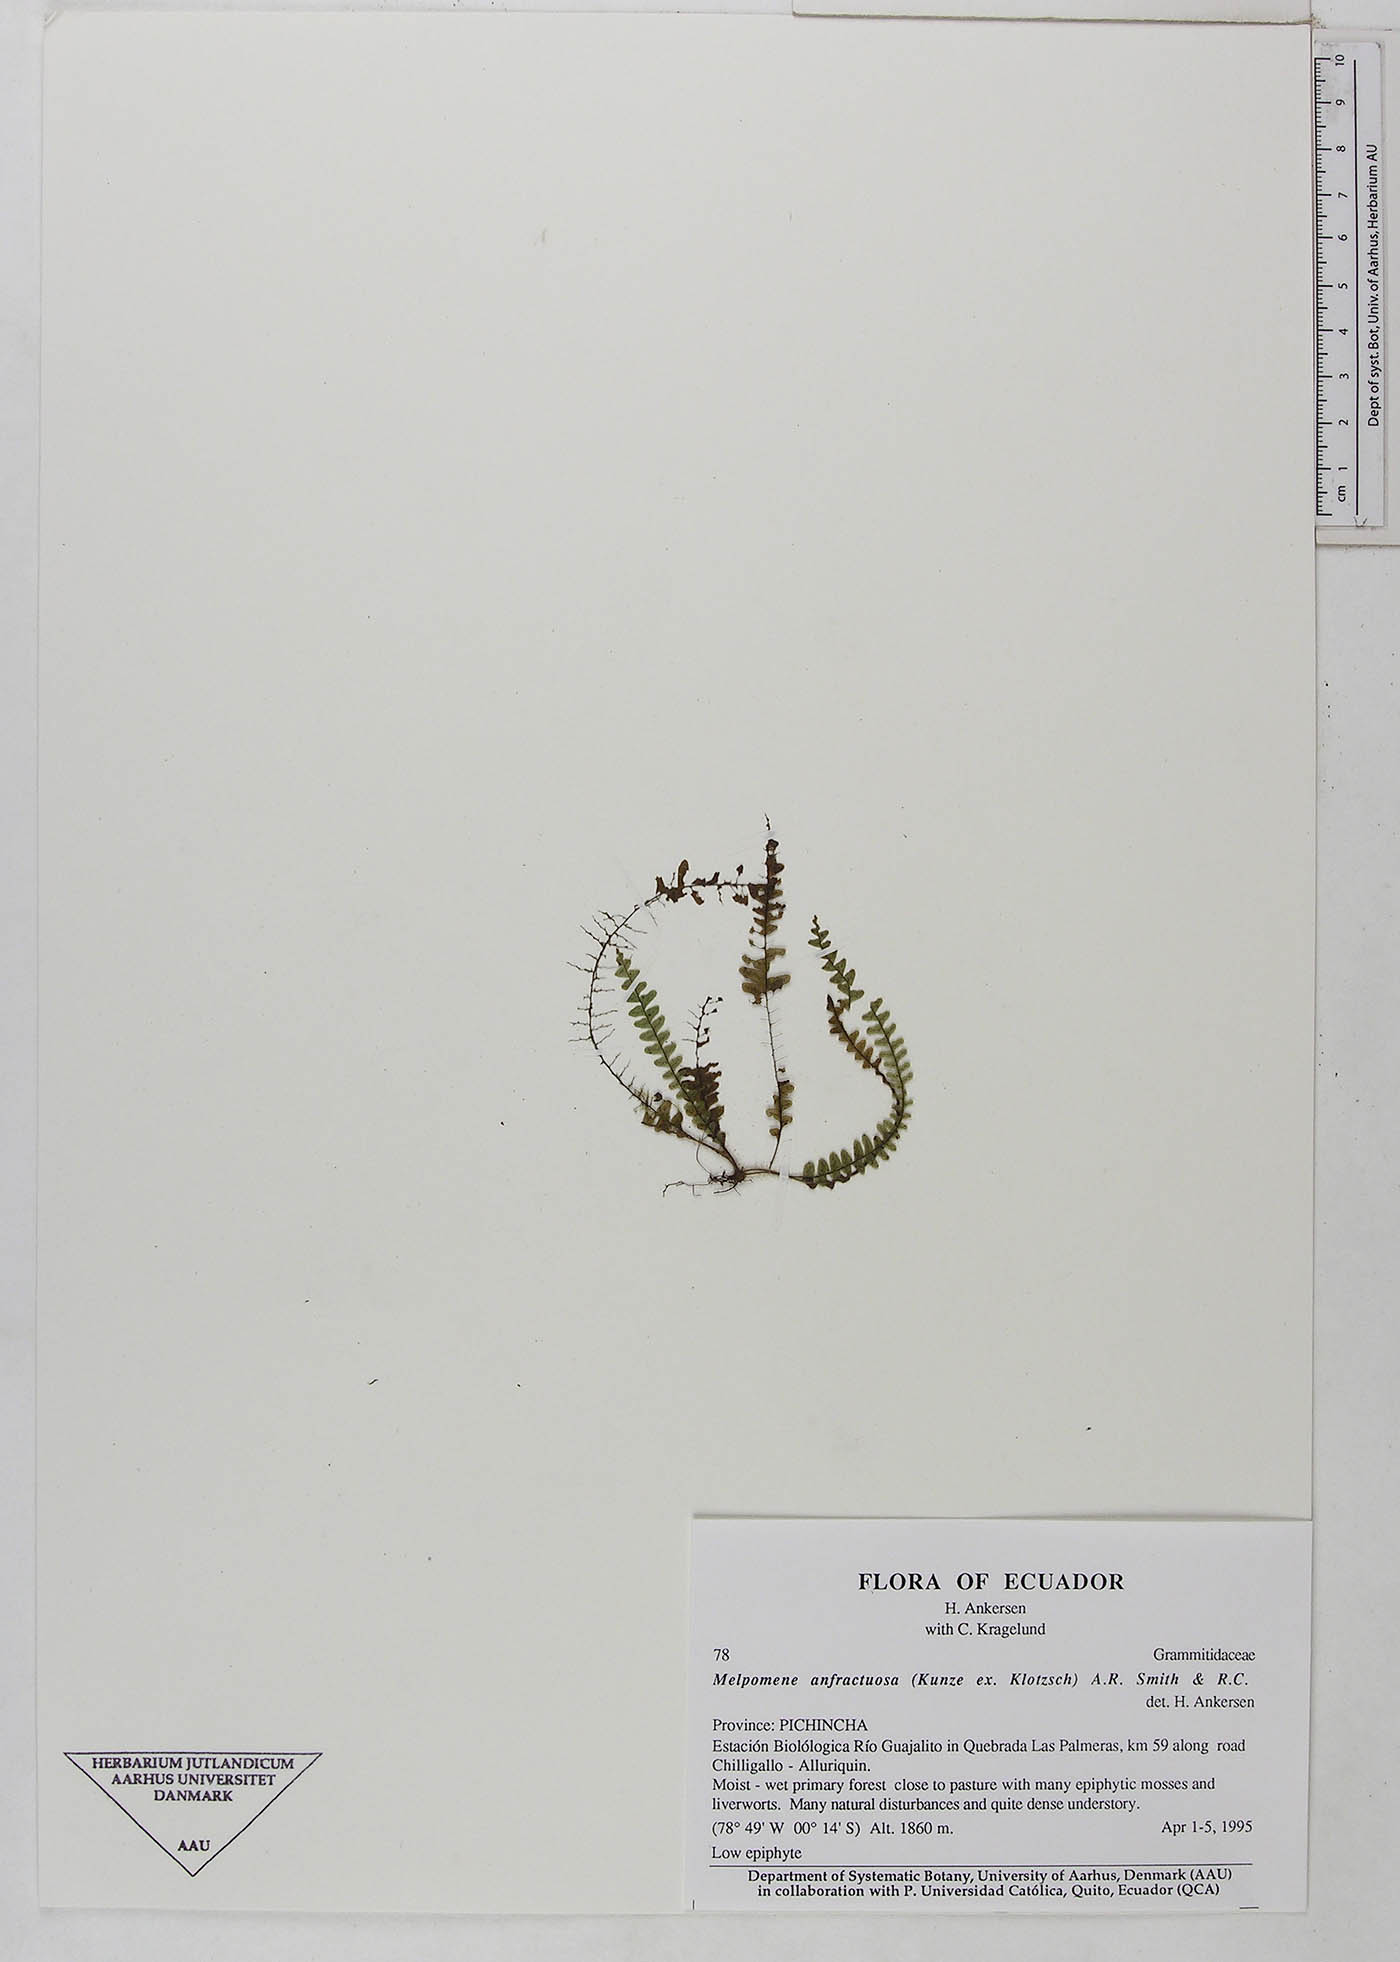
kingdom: Plantae
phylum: Tracheophyta
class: Polypodiopsida
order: Polypodiales
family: Polypodiaceae
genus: Ascogrammitis
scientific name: Ascogrammitis anfractuosa
